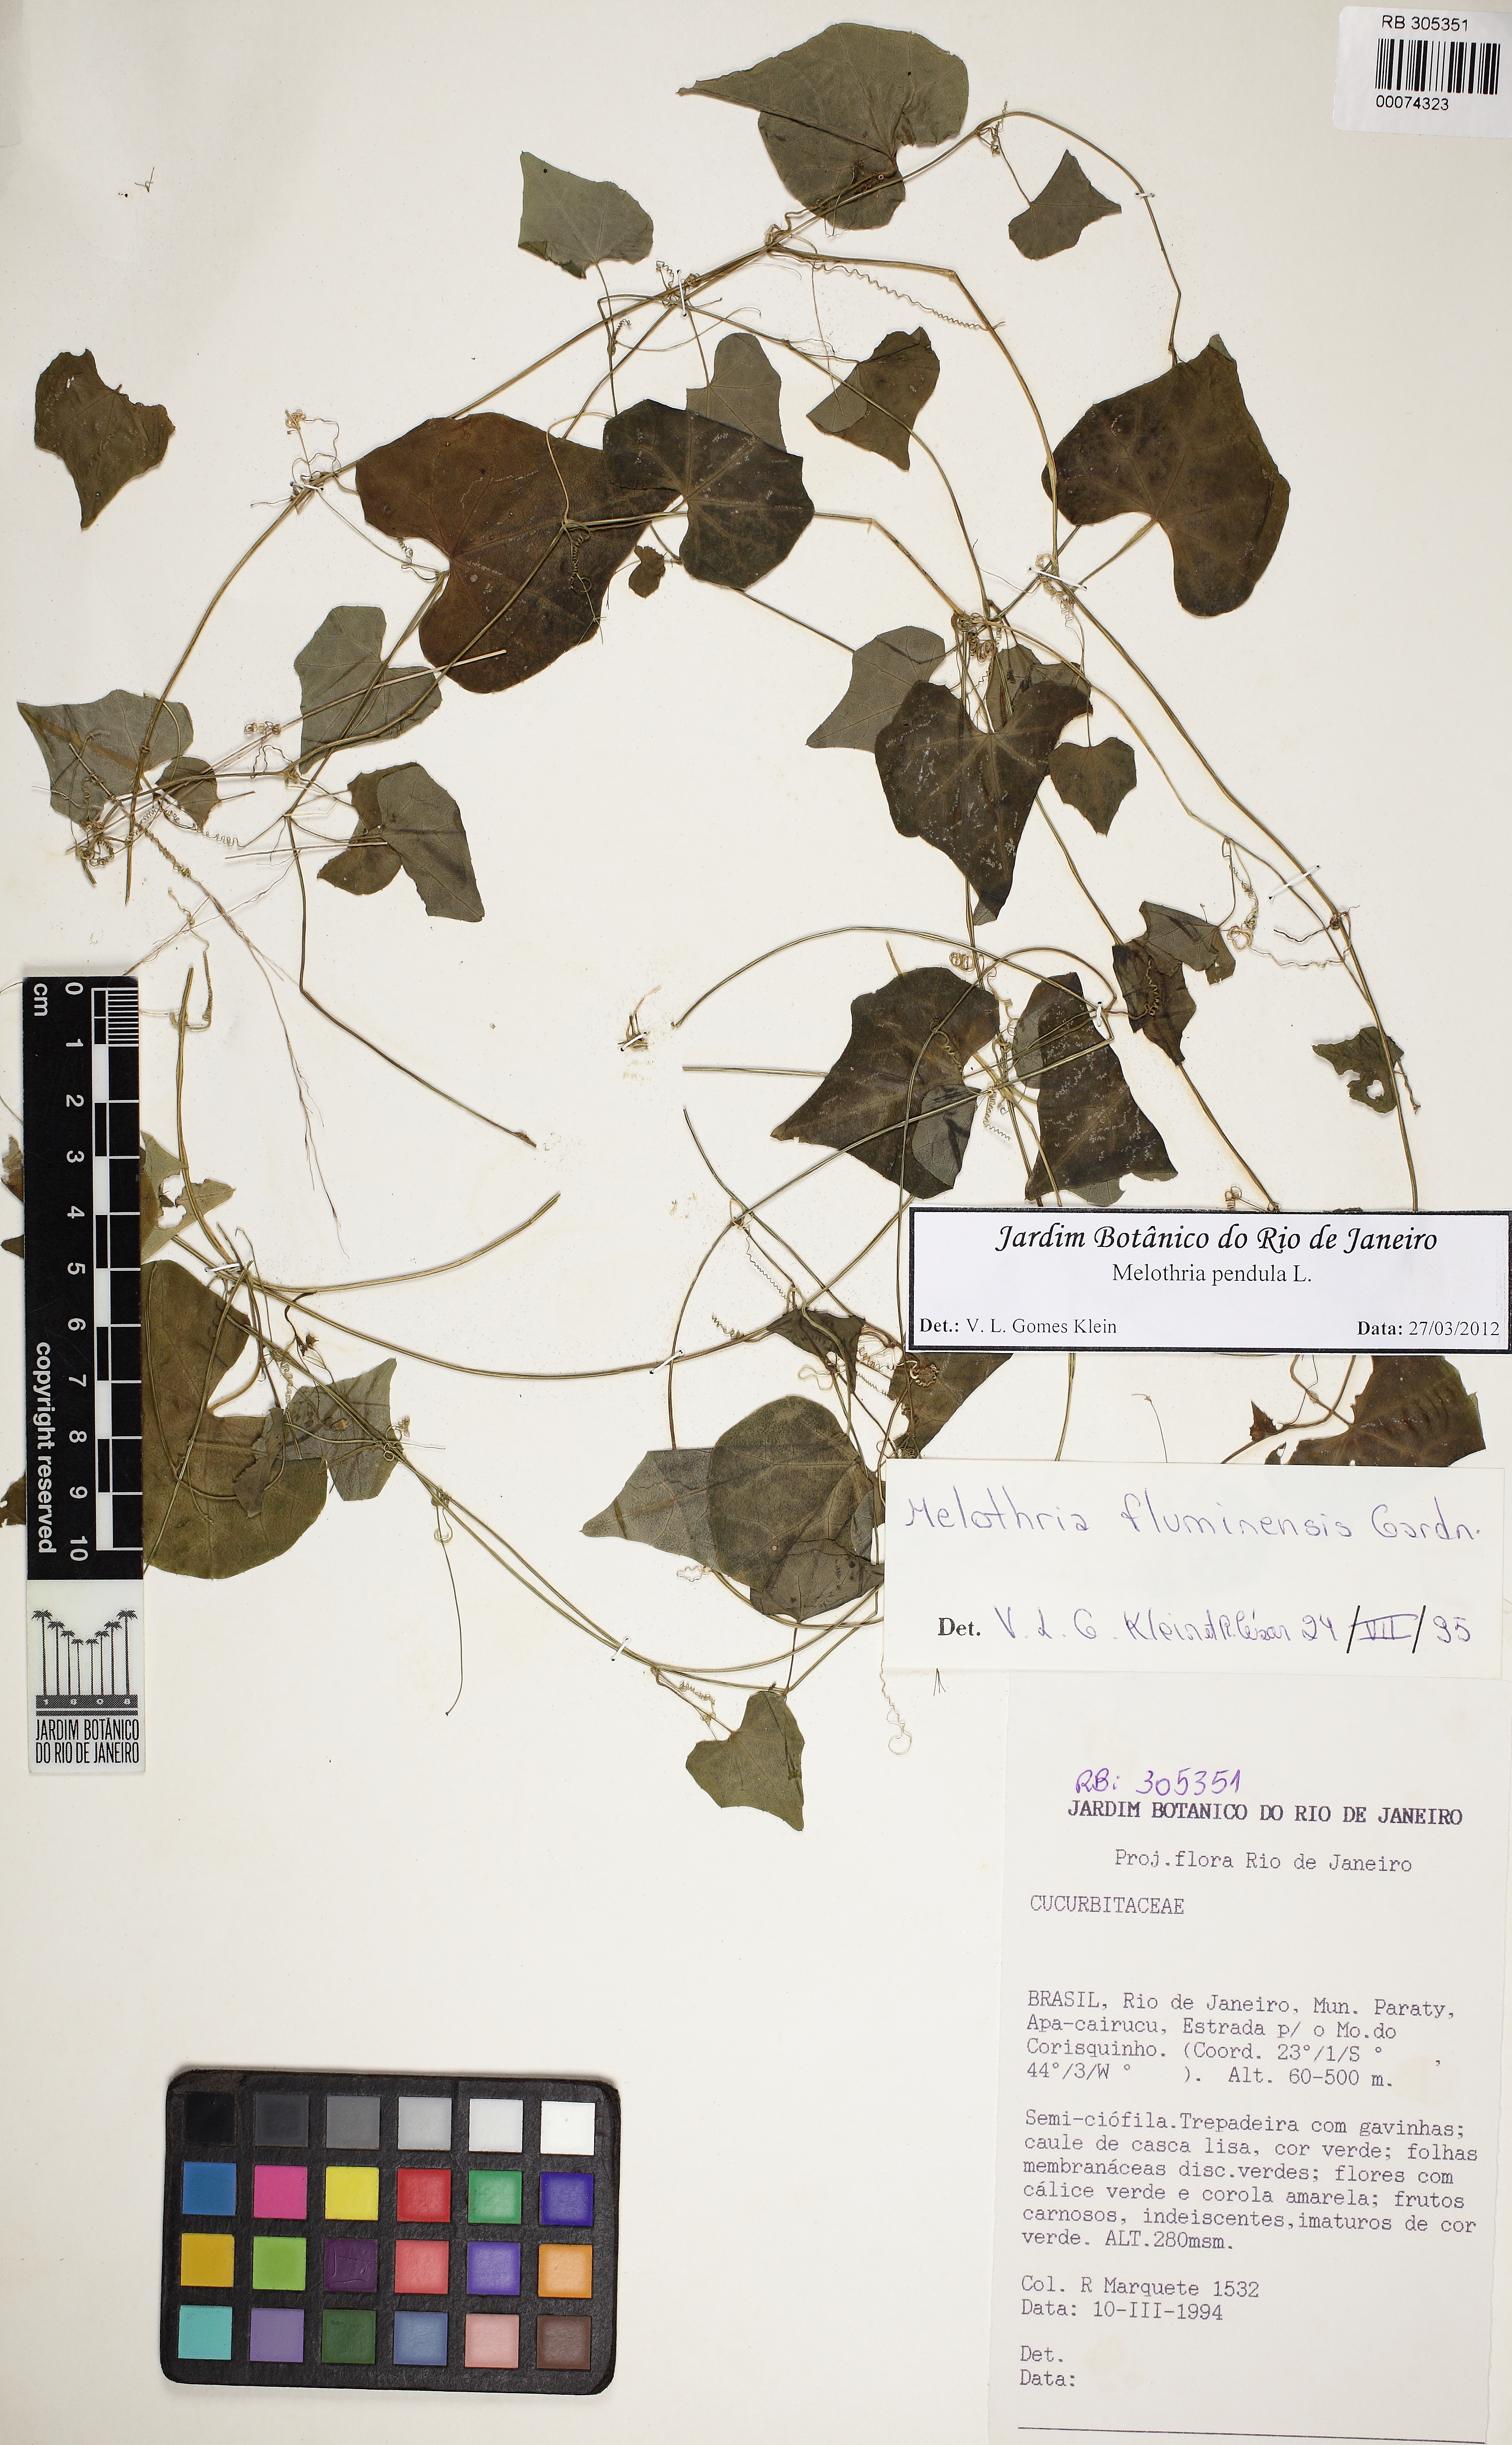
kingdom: Plantae
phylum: Tracheophyta
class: Magnoliopsida
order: Cucurbitales
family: Cucurbitaceae
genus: Melothria
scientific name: Melothria pendula
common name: Creeping-cucumber
